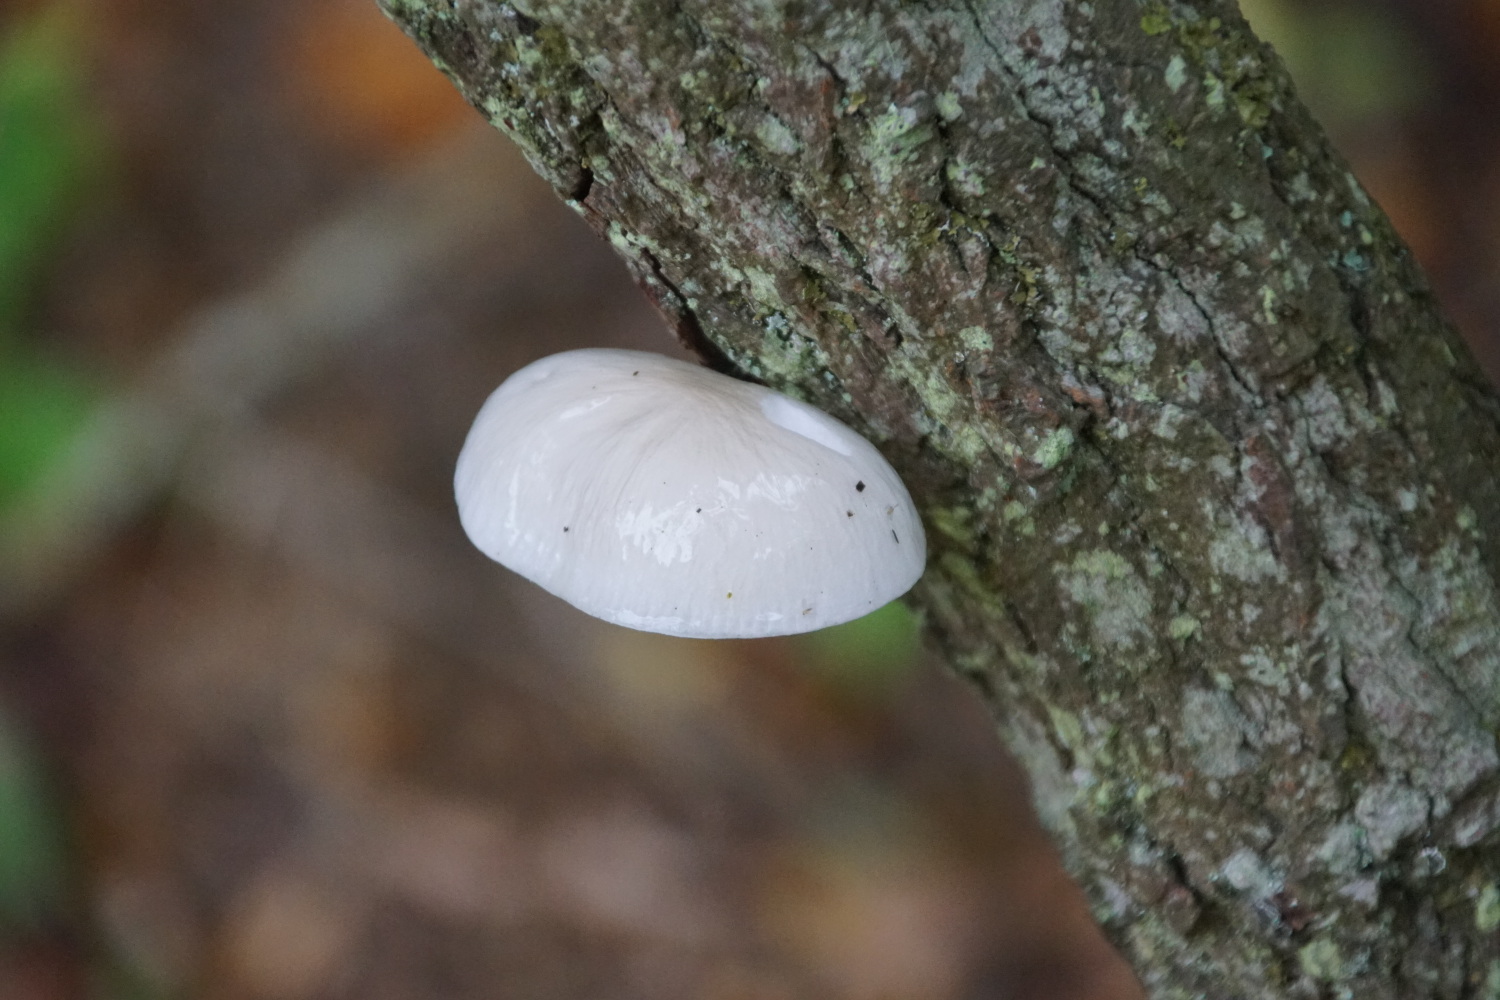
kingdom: Fungi
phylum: Basidiomycota
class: Agaricomycetes
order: Agaricales
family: Physalacriaceae
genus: Mucidula
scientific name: Mucidula mucida
